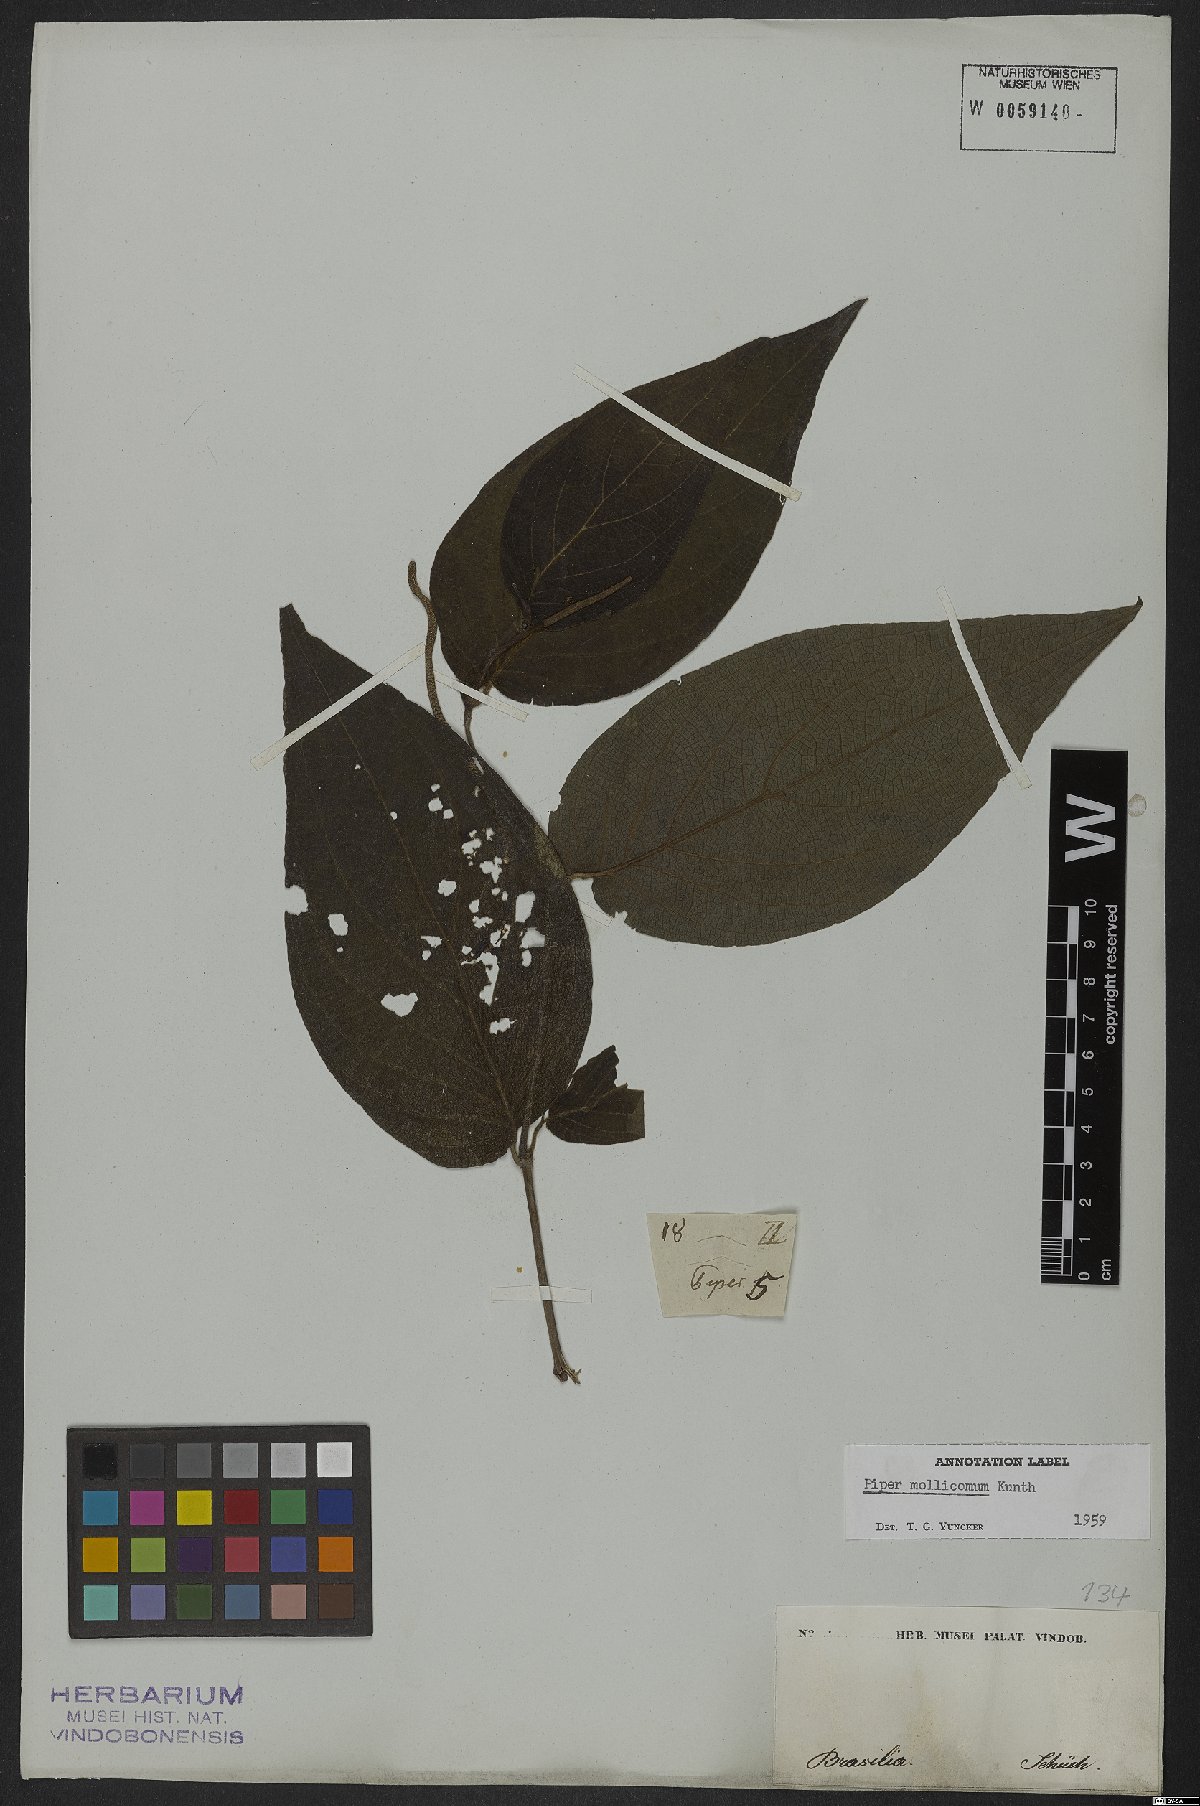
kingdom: Plantae
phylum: Tracheophyta
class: Magnoliopsida
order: Piperales
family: Piperaceae
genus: Piper
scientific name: Piper mollicomum
